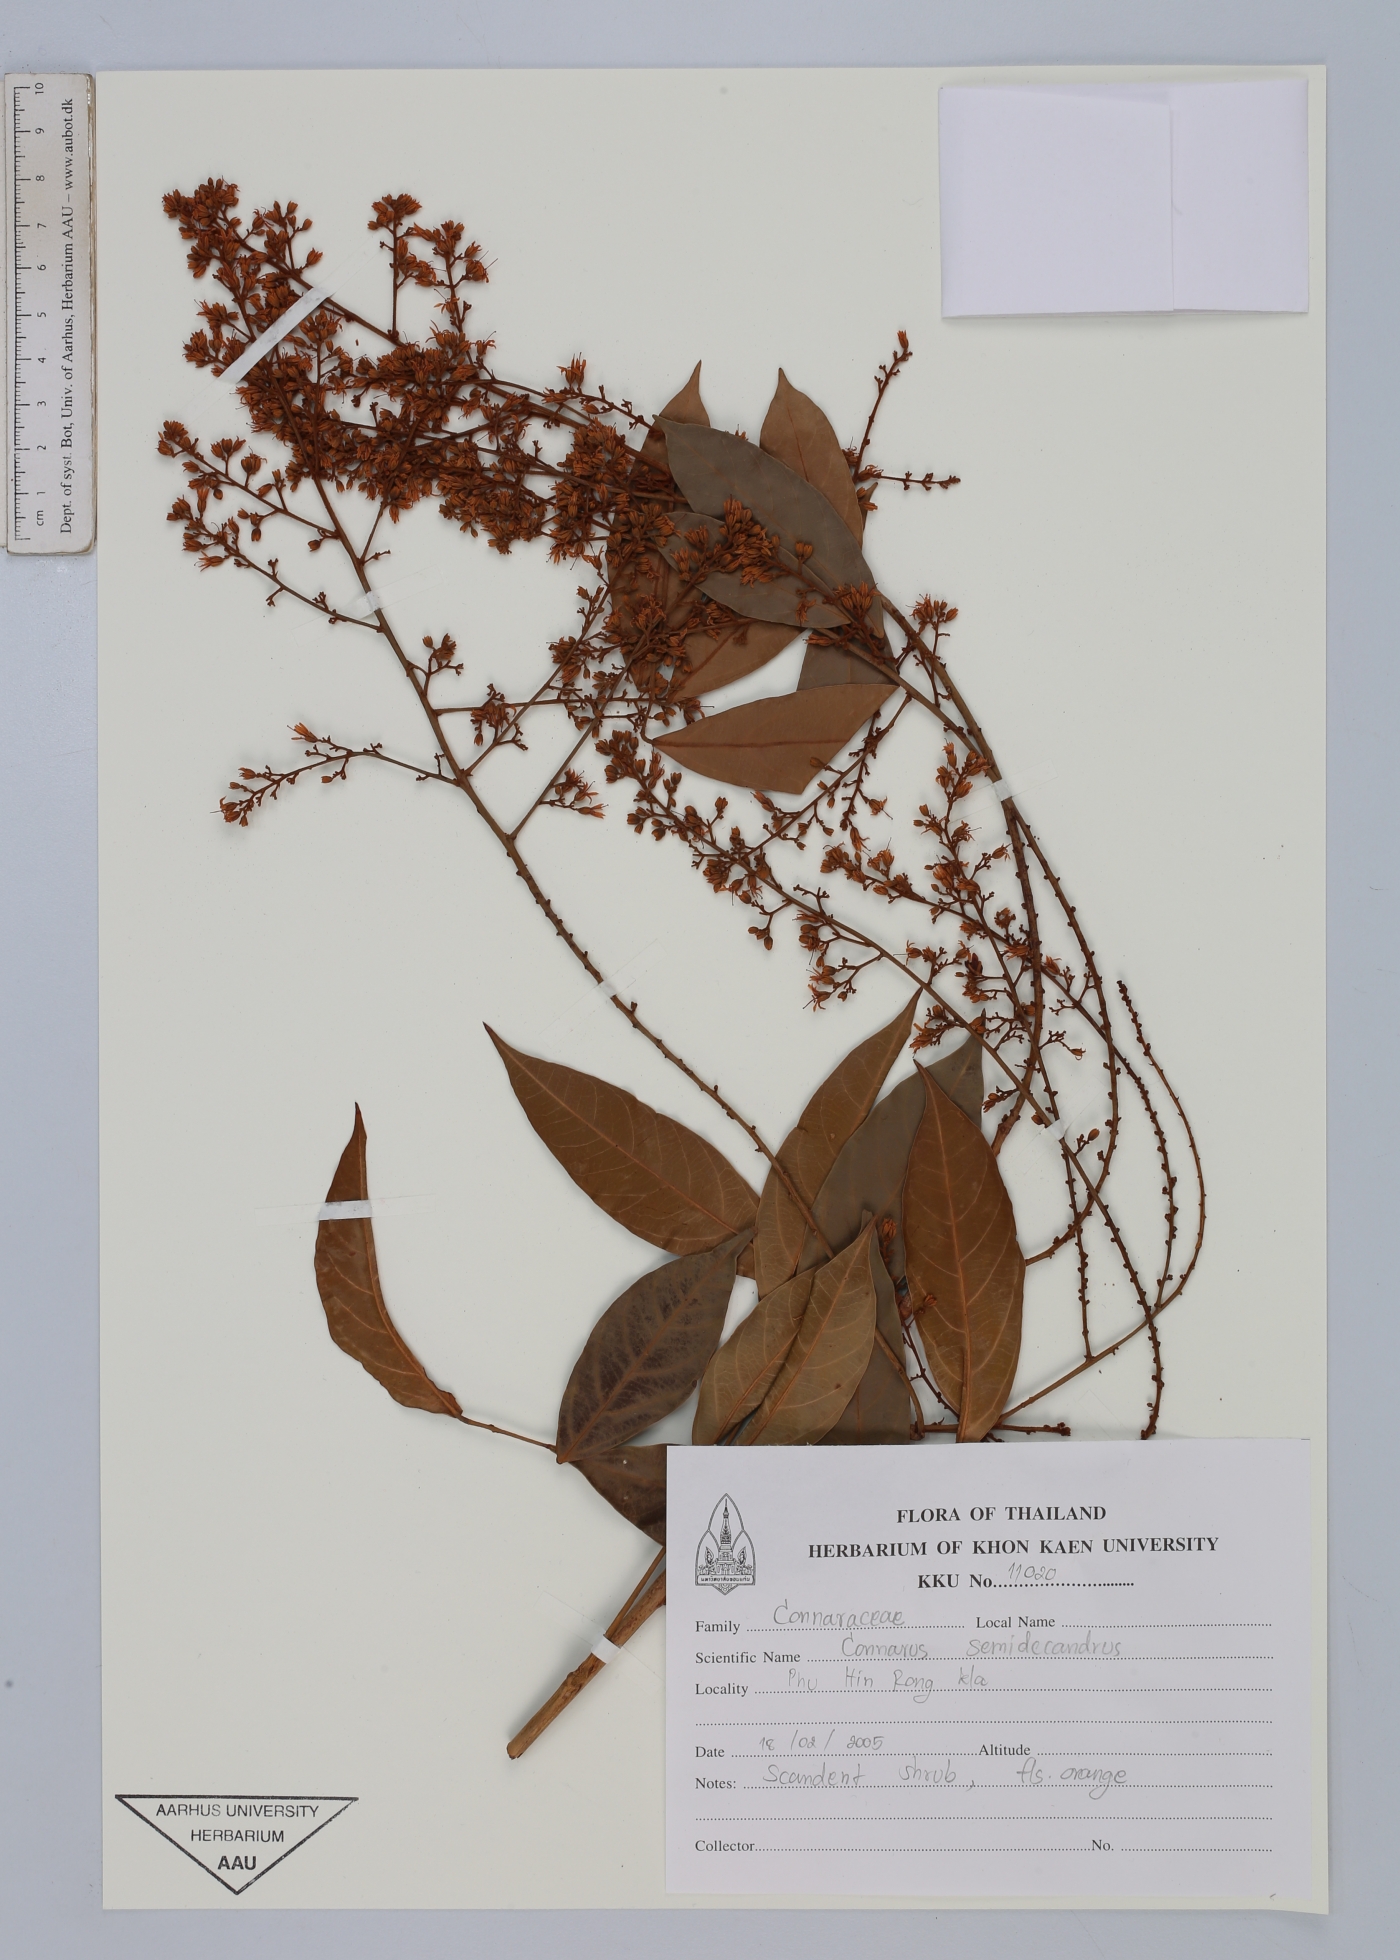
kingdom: Plantae
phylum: Tracheophyta
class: Magnoliopsida
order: Oxalidales
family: Connaraceae
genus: Connarus
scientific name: Connarus semidecandrus
